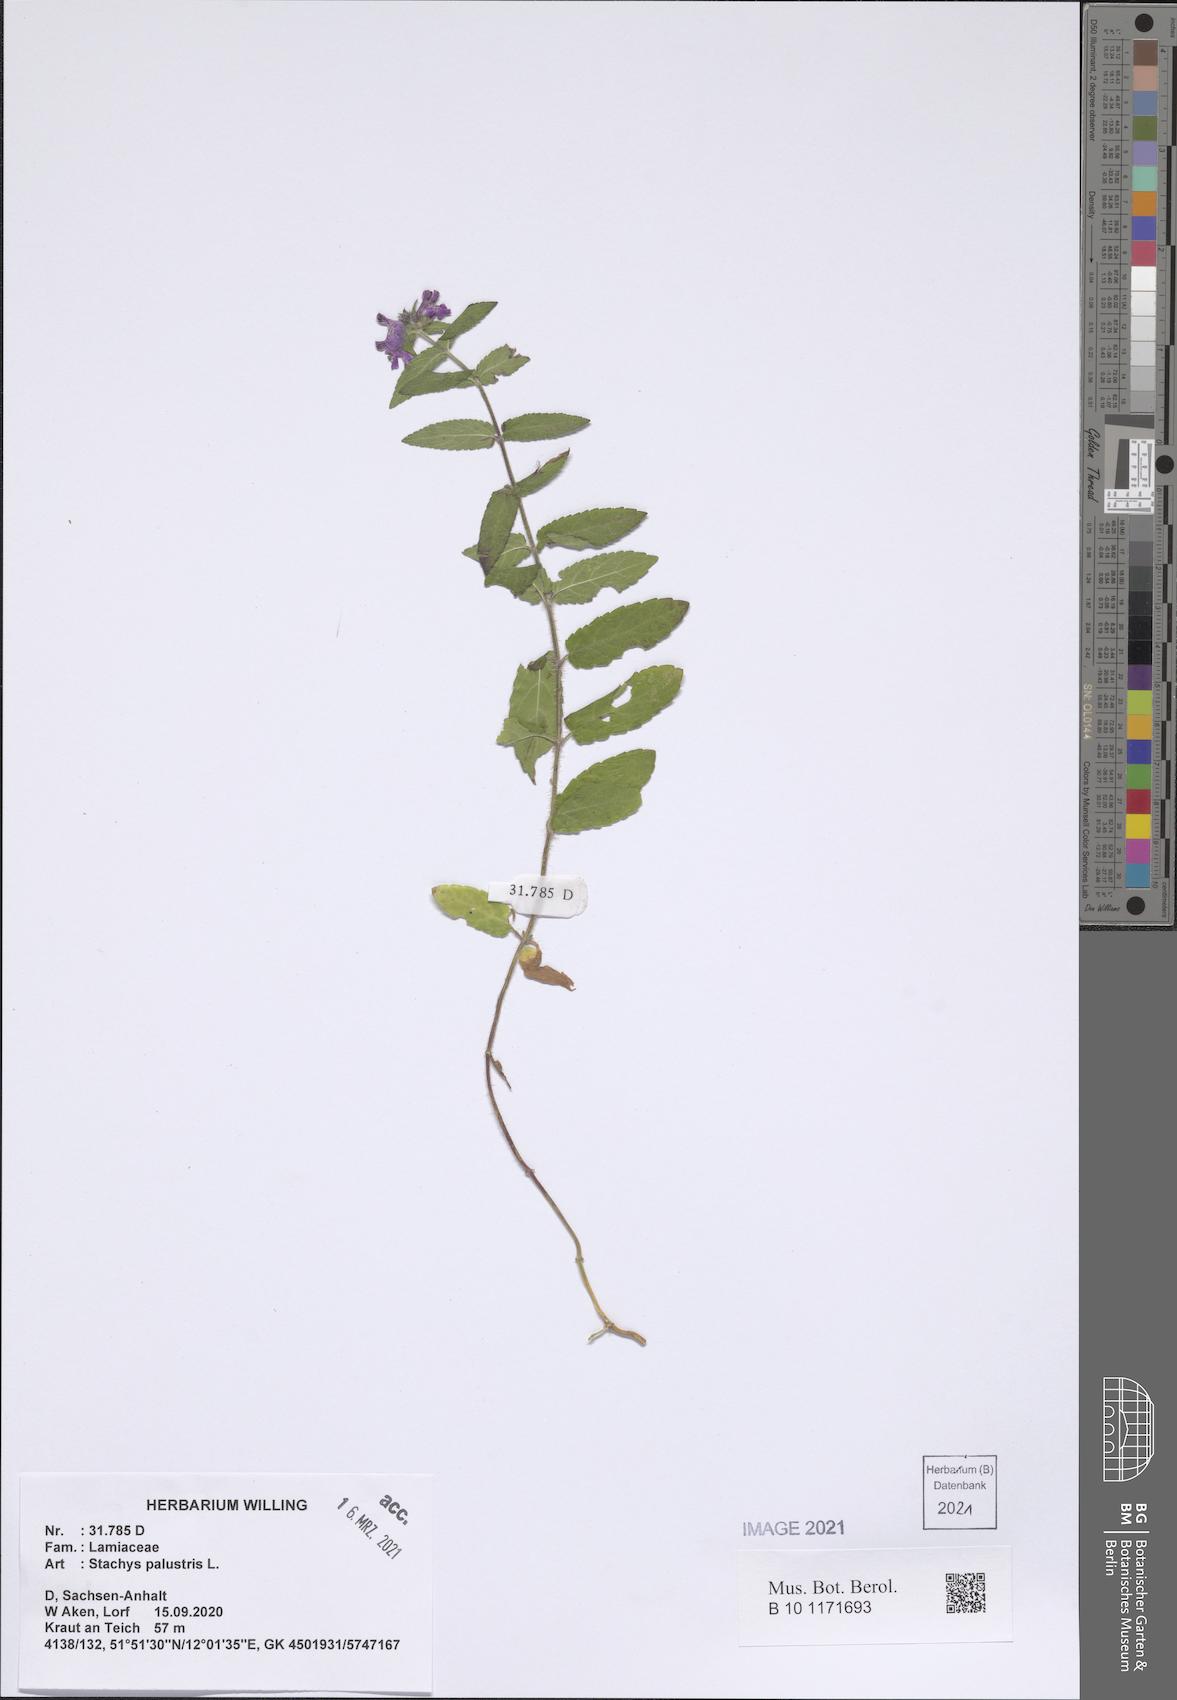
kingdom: Plantae
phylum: Tracheophyta
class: Magnoliopsida
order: Lamiales
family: Lamiaceae
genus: Stachys
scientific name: Stachys palustris
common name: Marsh woundwort
